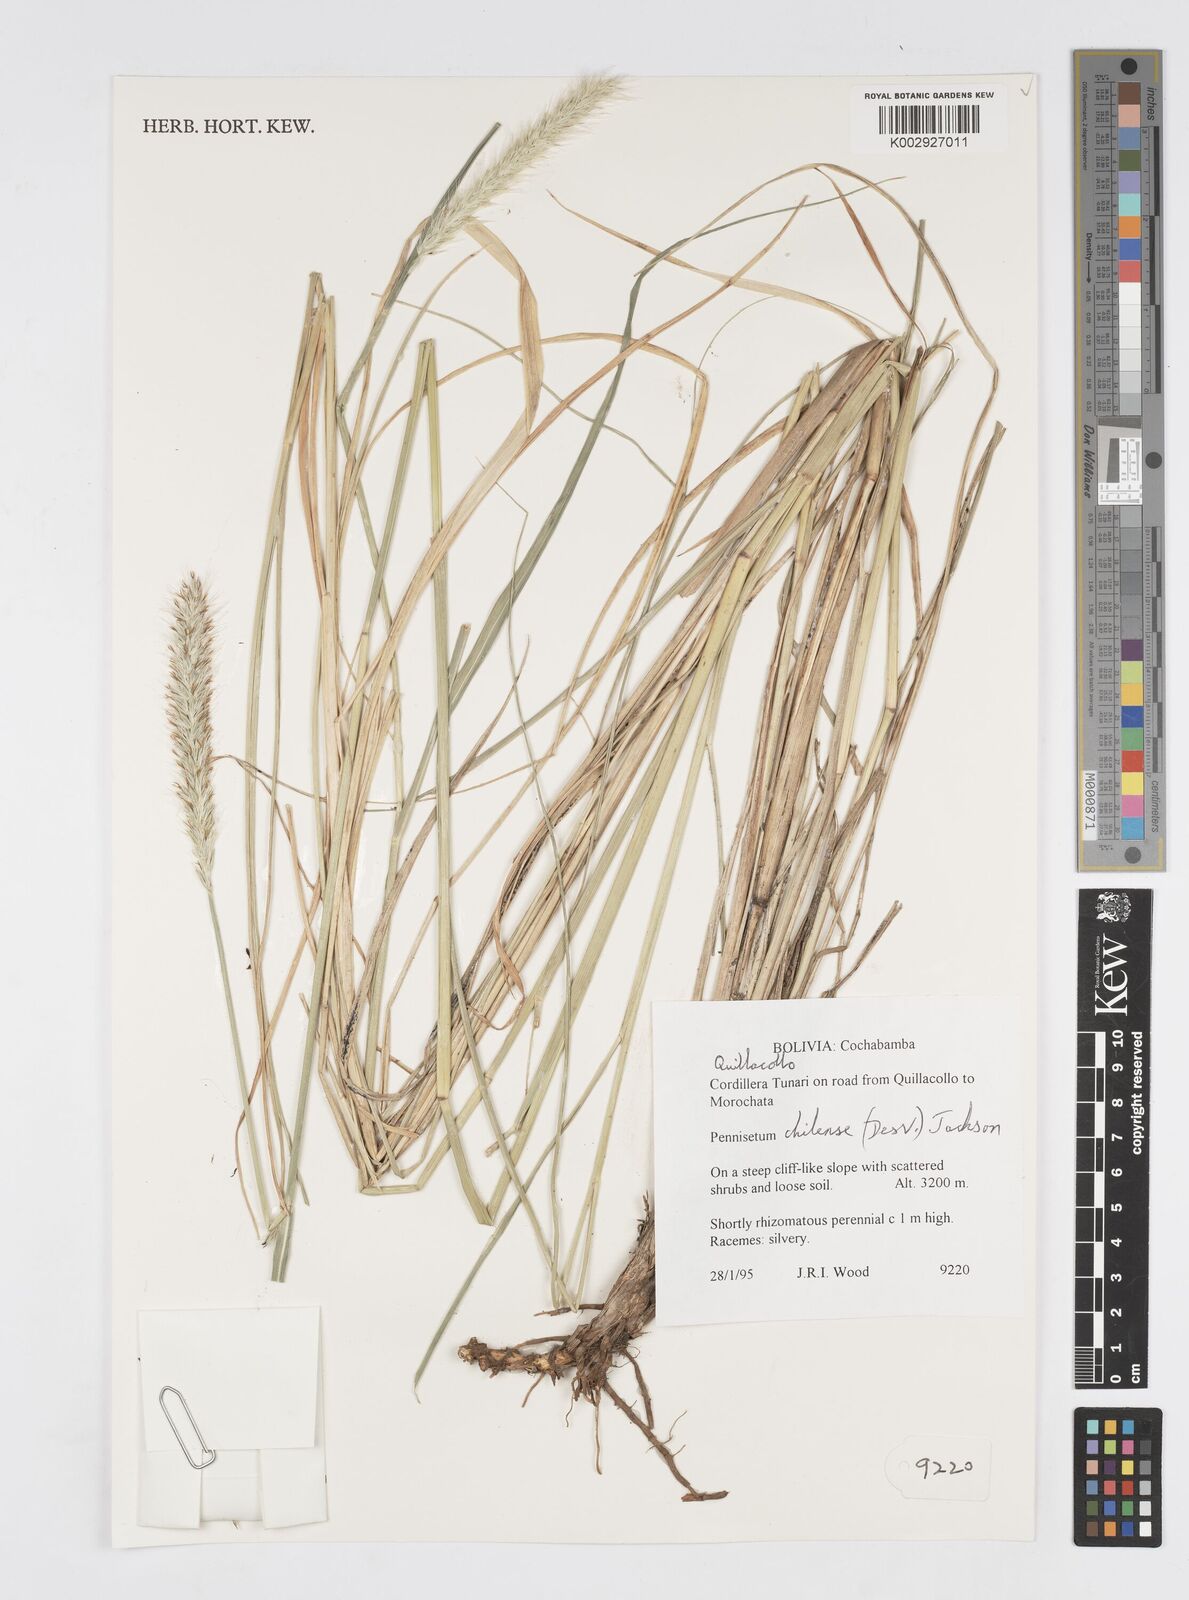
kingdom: Plantae
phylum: Tracheophyta
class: Liliopsida
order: Poales
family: Poaceae
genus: Cenchrus
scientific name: Cenchrus chilensis
